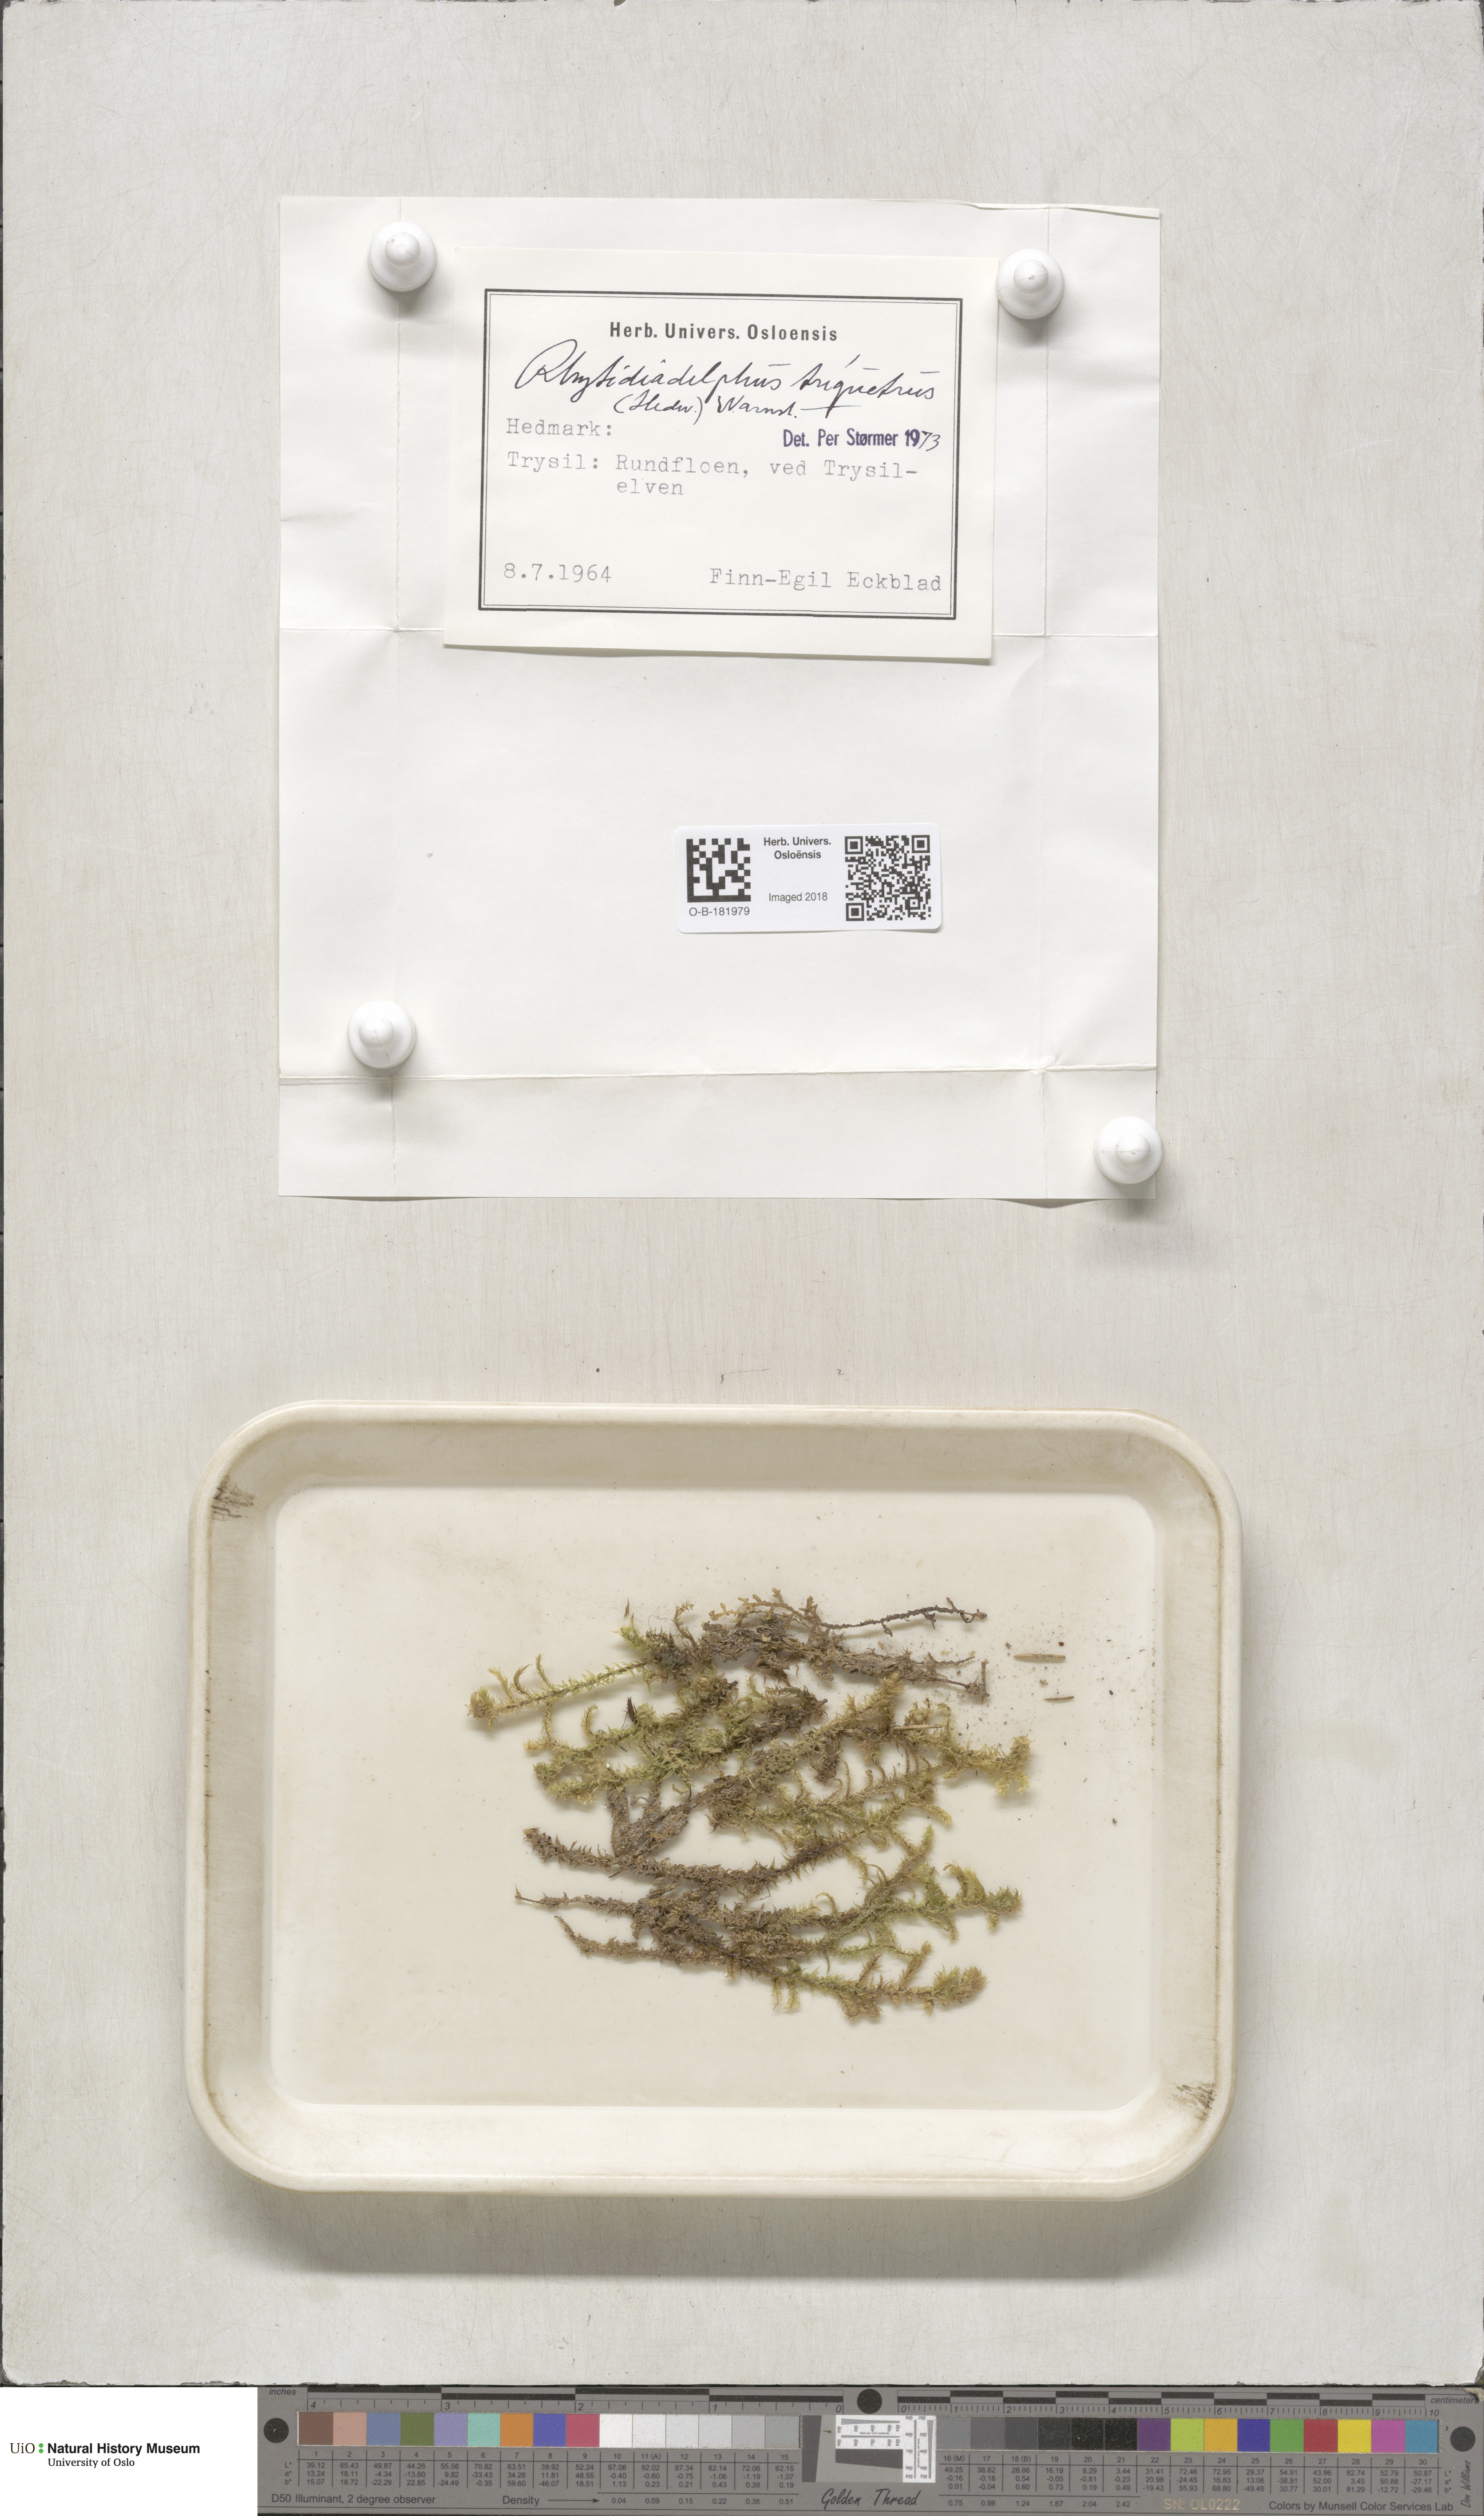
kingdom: Plantae
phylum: Bryophyta
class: Bryopsida
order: Hypnales
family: Hylocomiaceae
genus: Hylocomiadelphus
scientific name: Hylocomiadelphus triquetrus
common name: Rough goose neck moss
